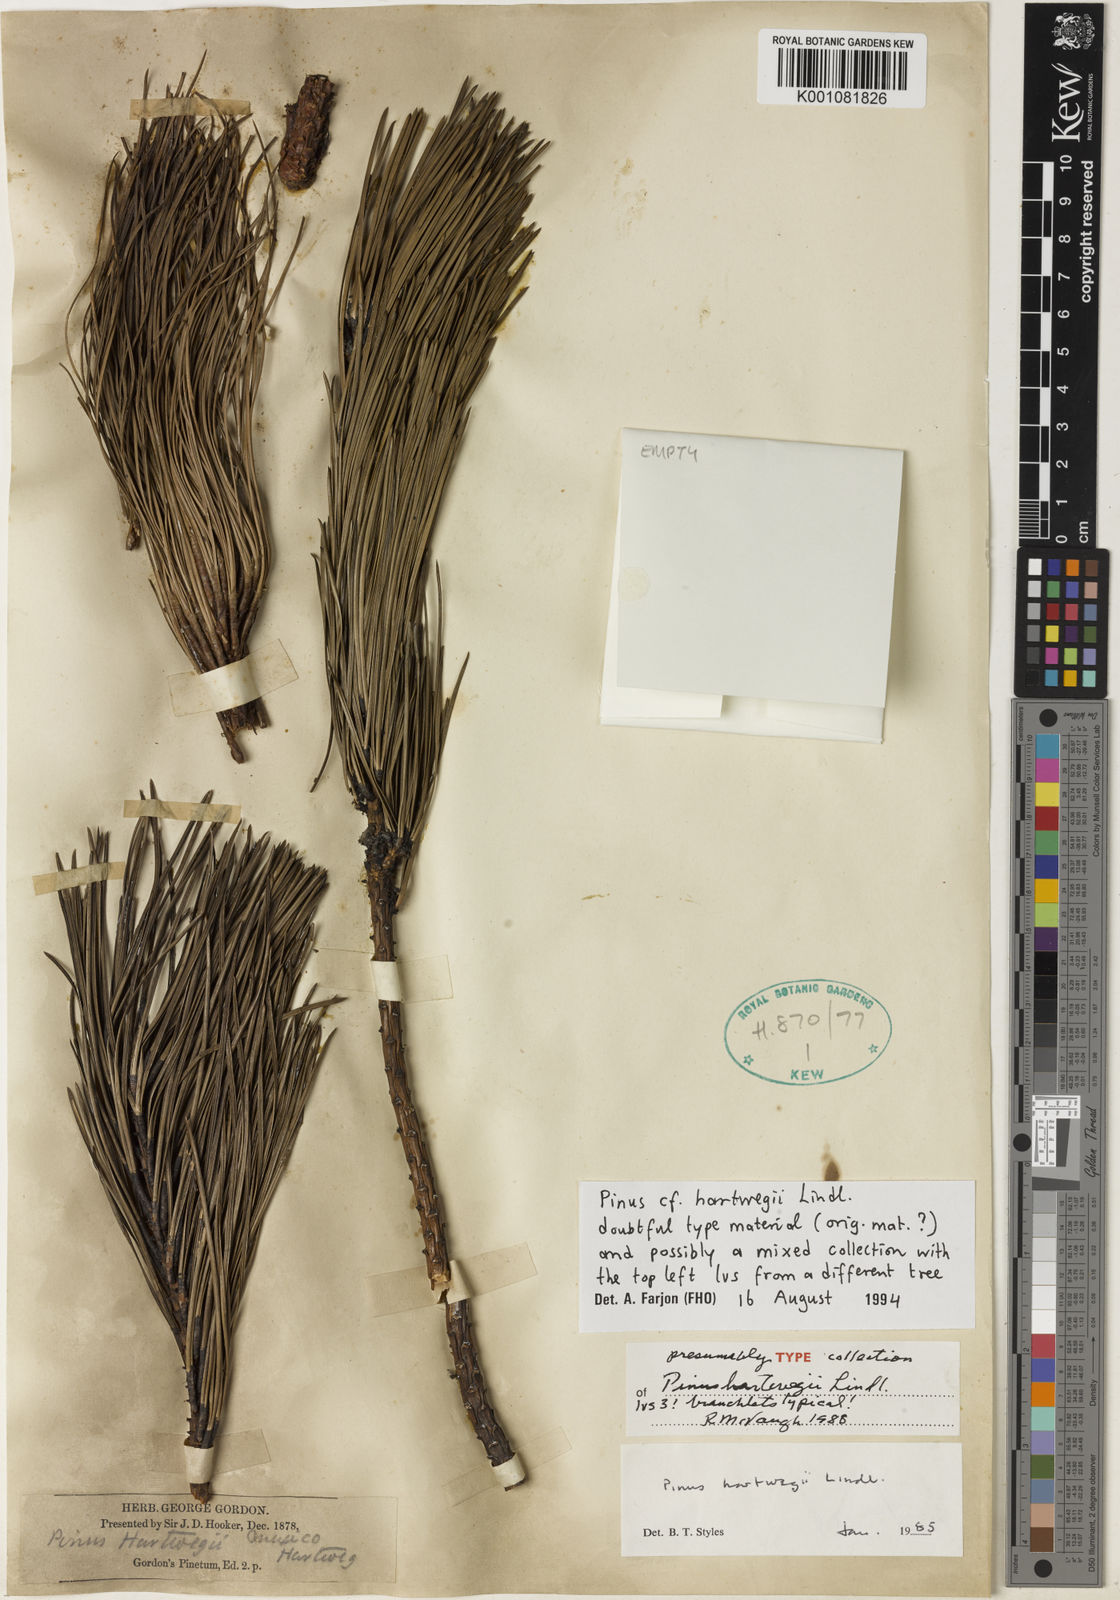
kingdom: Plantae
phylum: Tracheophyta
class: Pinopsida
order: Pinales
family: Pinaceae
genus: Pinus
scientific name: Pinus hartwegii
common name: Hartweg's pine
